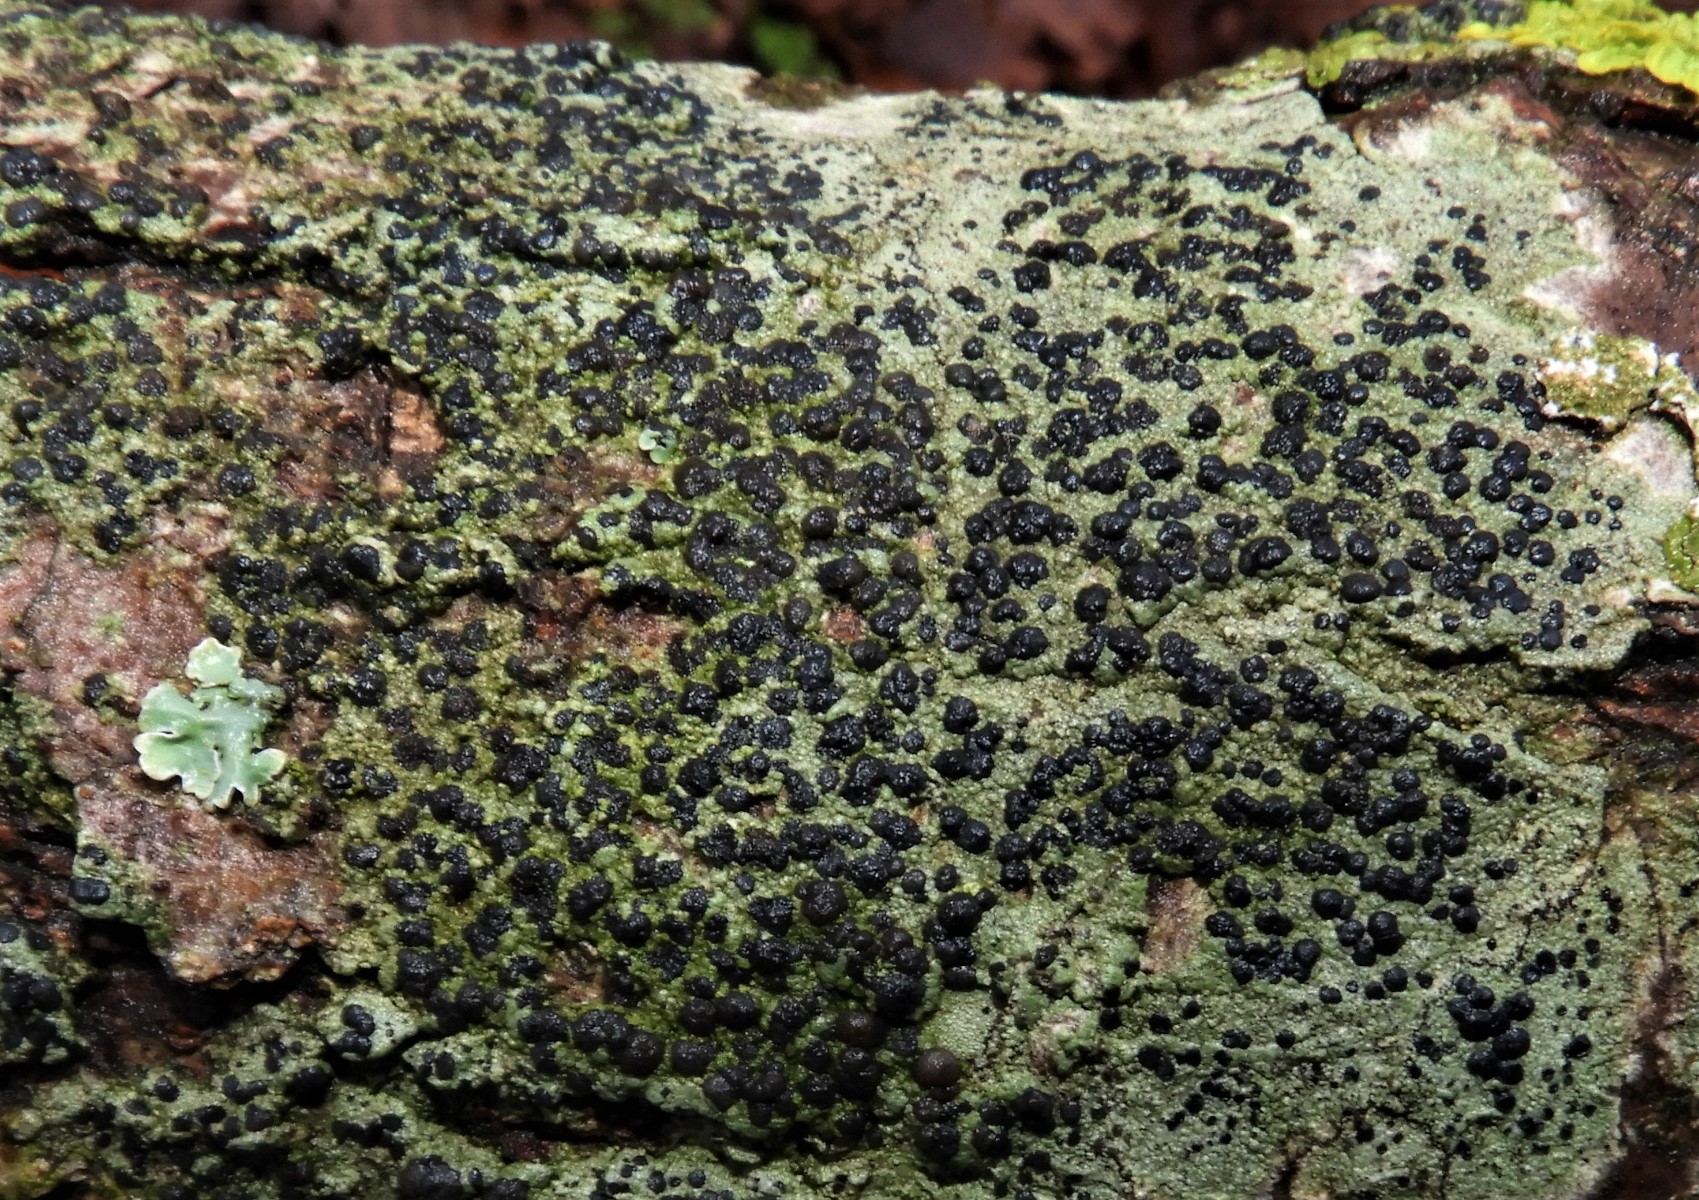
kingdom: Fungi
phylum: Ascomycota
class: Lecanoromycetes
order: Lecanorales
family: Lecanoraceae
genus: Lecidella
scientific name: Lecidella elaeochroma
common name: grågrøn skivelav
